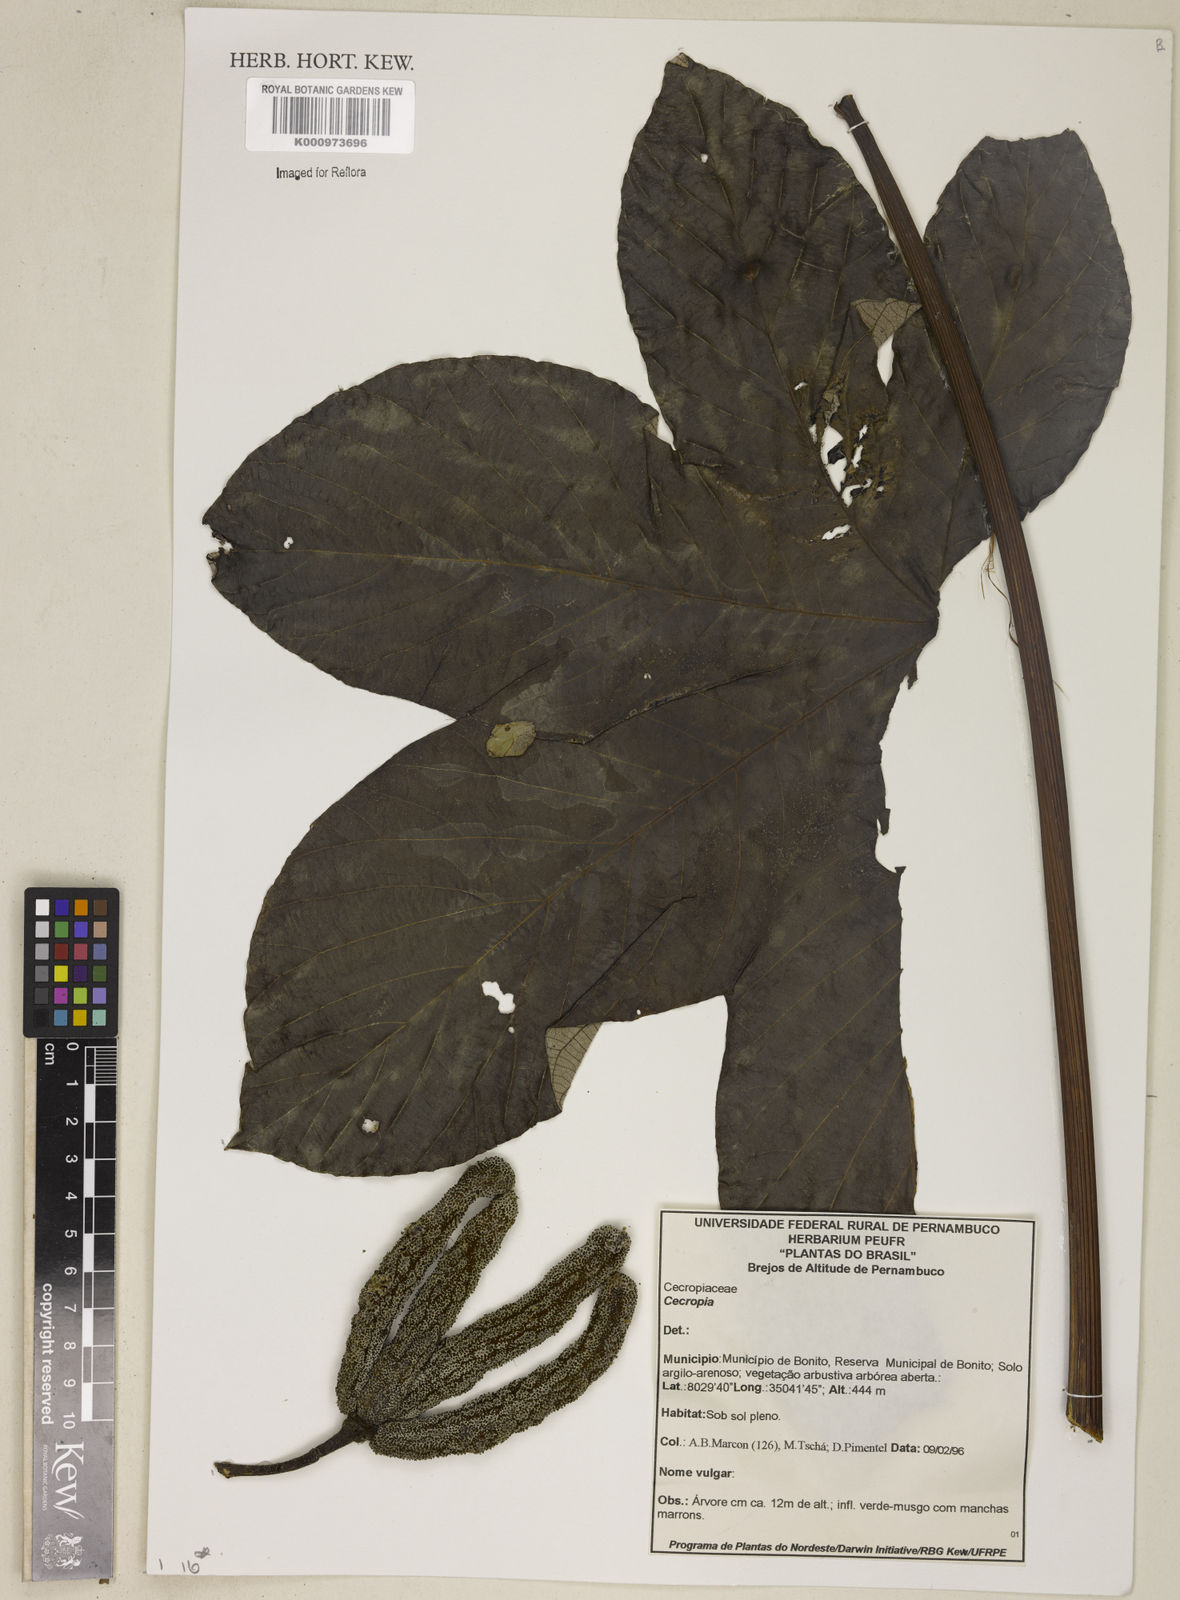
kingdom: Plantae
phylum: Tracheophyta
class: Magnoliopsida
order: Rosales
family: Urticaceae
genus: Cecropia
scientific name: Cecropia
